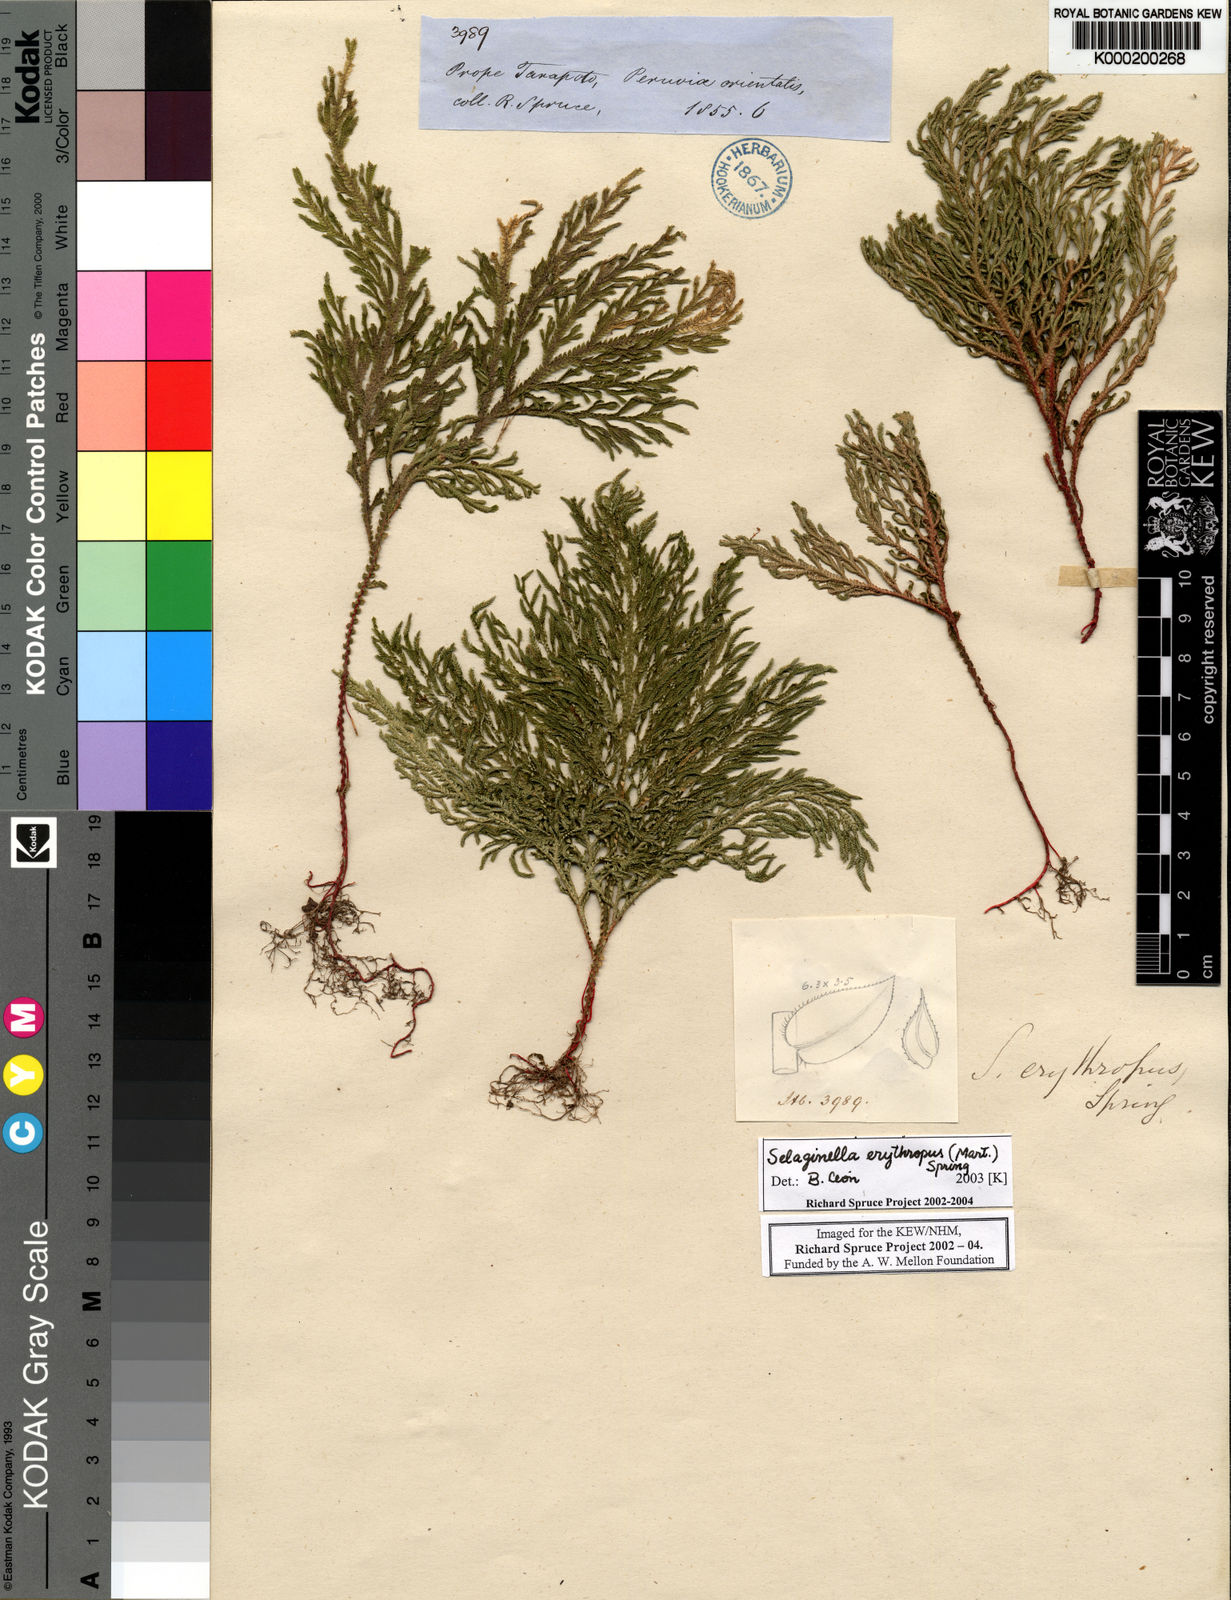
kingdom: Plantae
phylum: Tracheophyta
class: Lycopodiopsida
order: Selaginellales
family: Selaginellaceae
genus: Selaginella
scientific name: Selaginella erythropus
